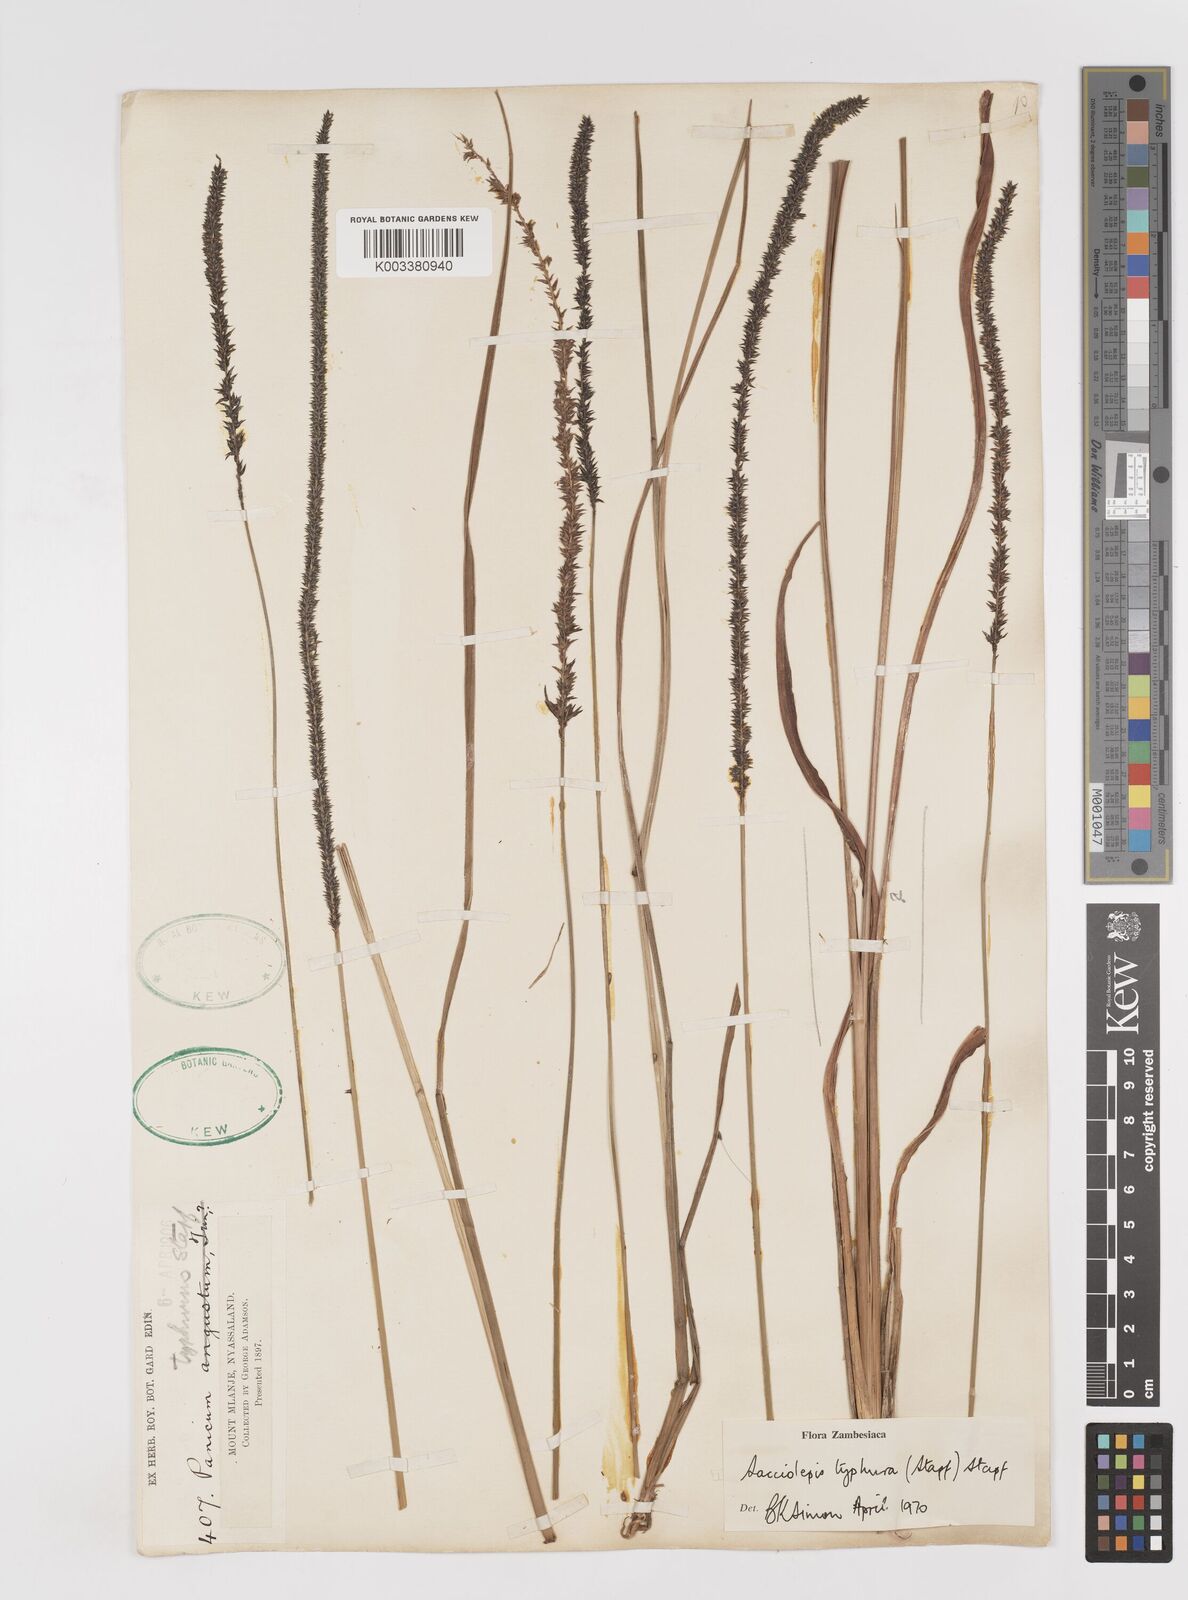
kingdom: Plantae
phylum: Tracheophyta
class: Liliopsida
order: Poales
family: Poaceae
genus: Sacciolepis
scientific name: Sacciolepis typhura
